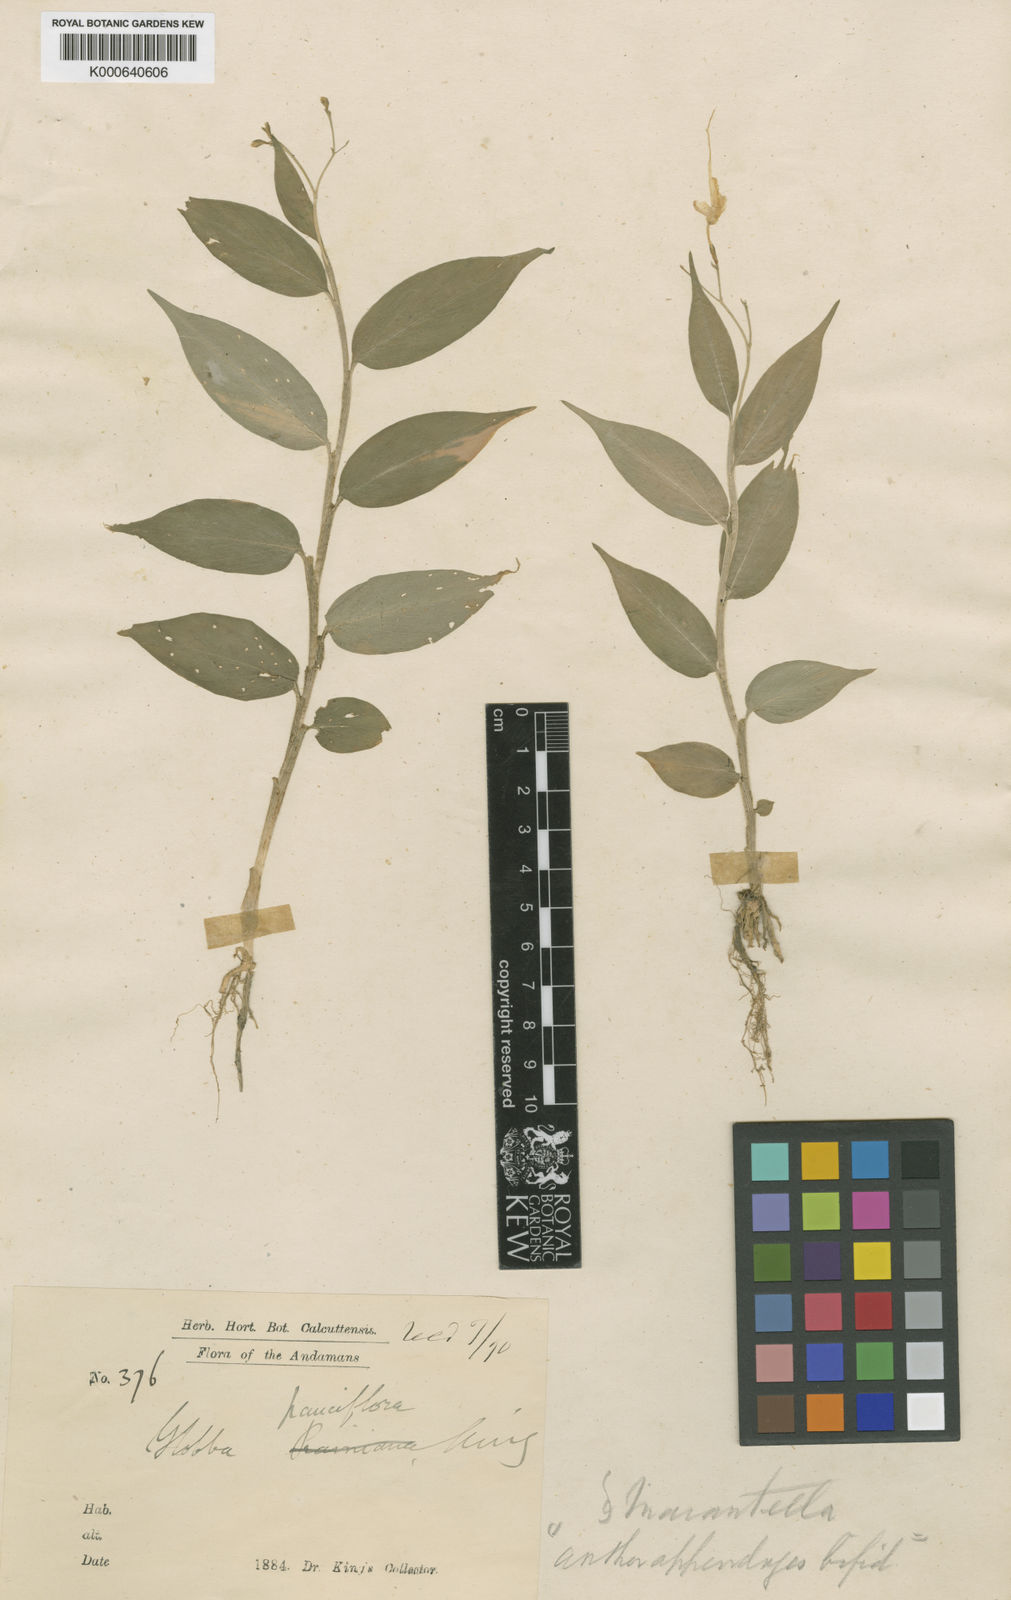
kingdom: Plantae
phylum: Tracheophyta
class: Liliopsida
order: Zingiberales
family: Zingiberaceae
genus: Globba
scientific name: Globba pauciflora
